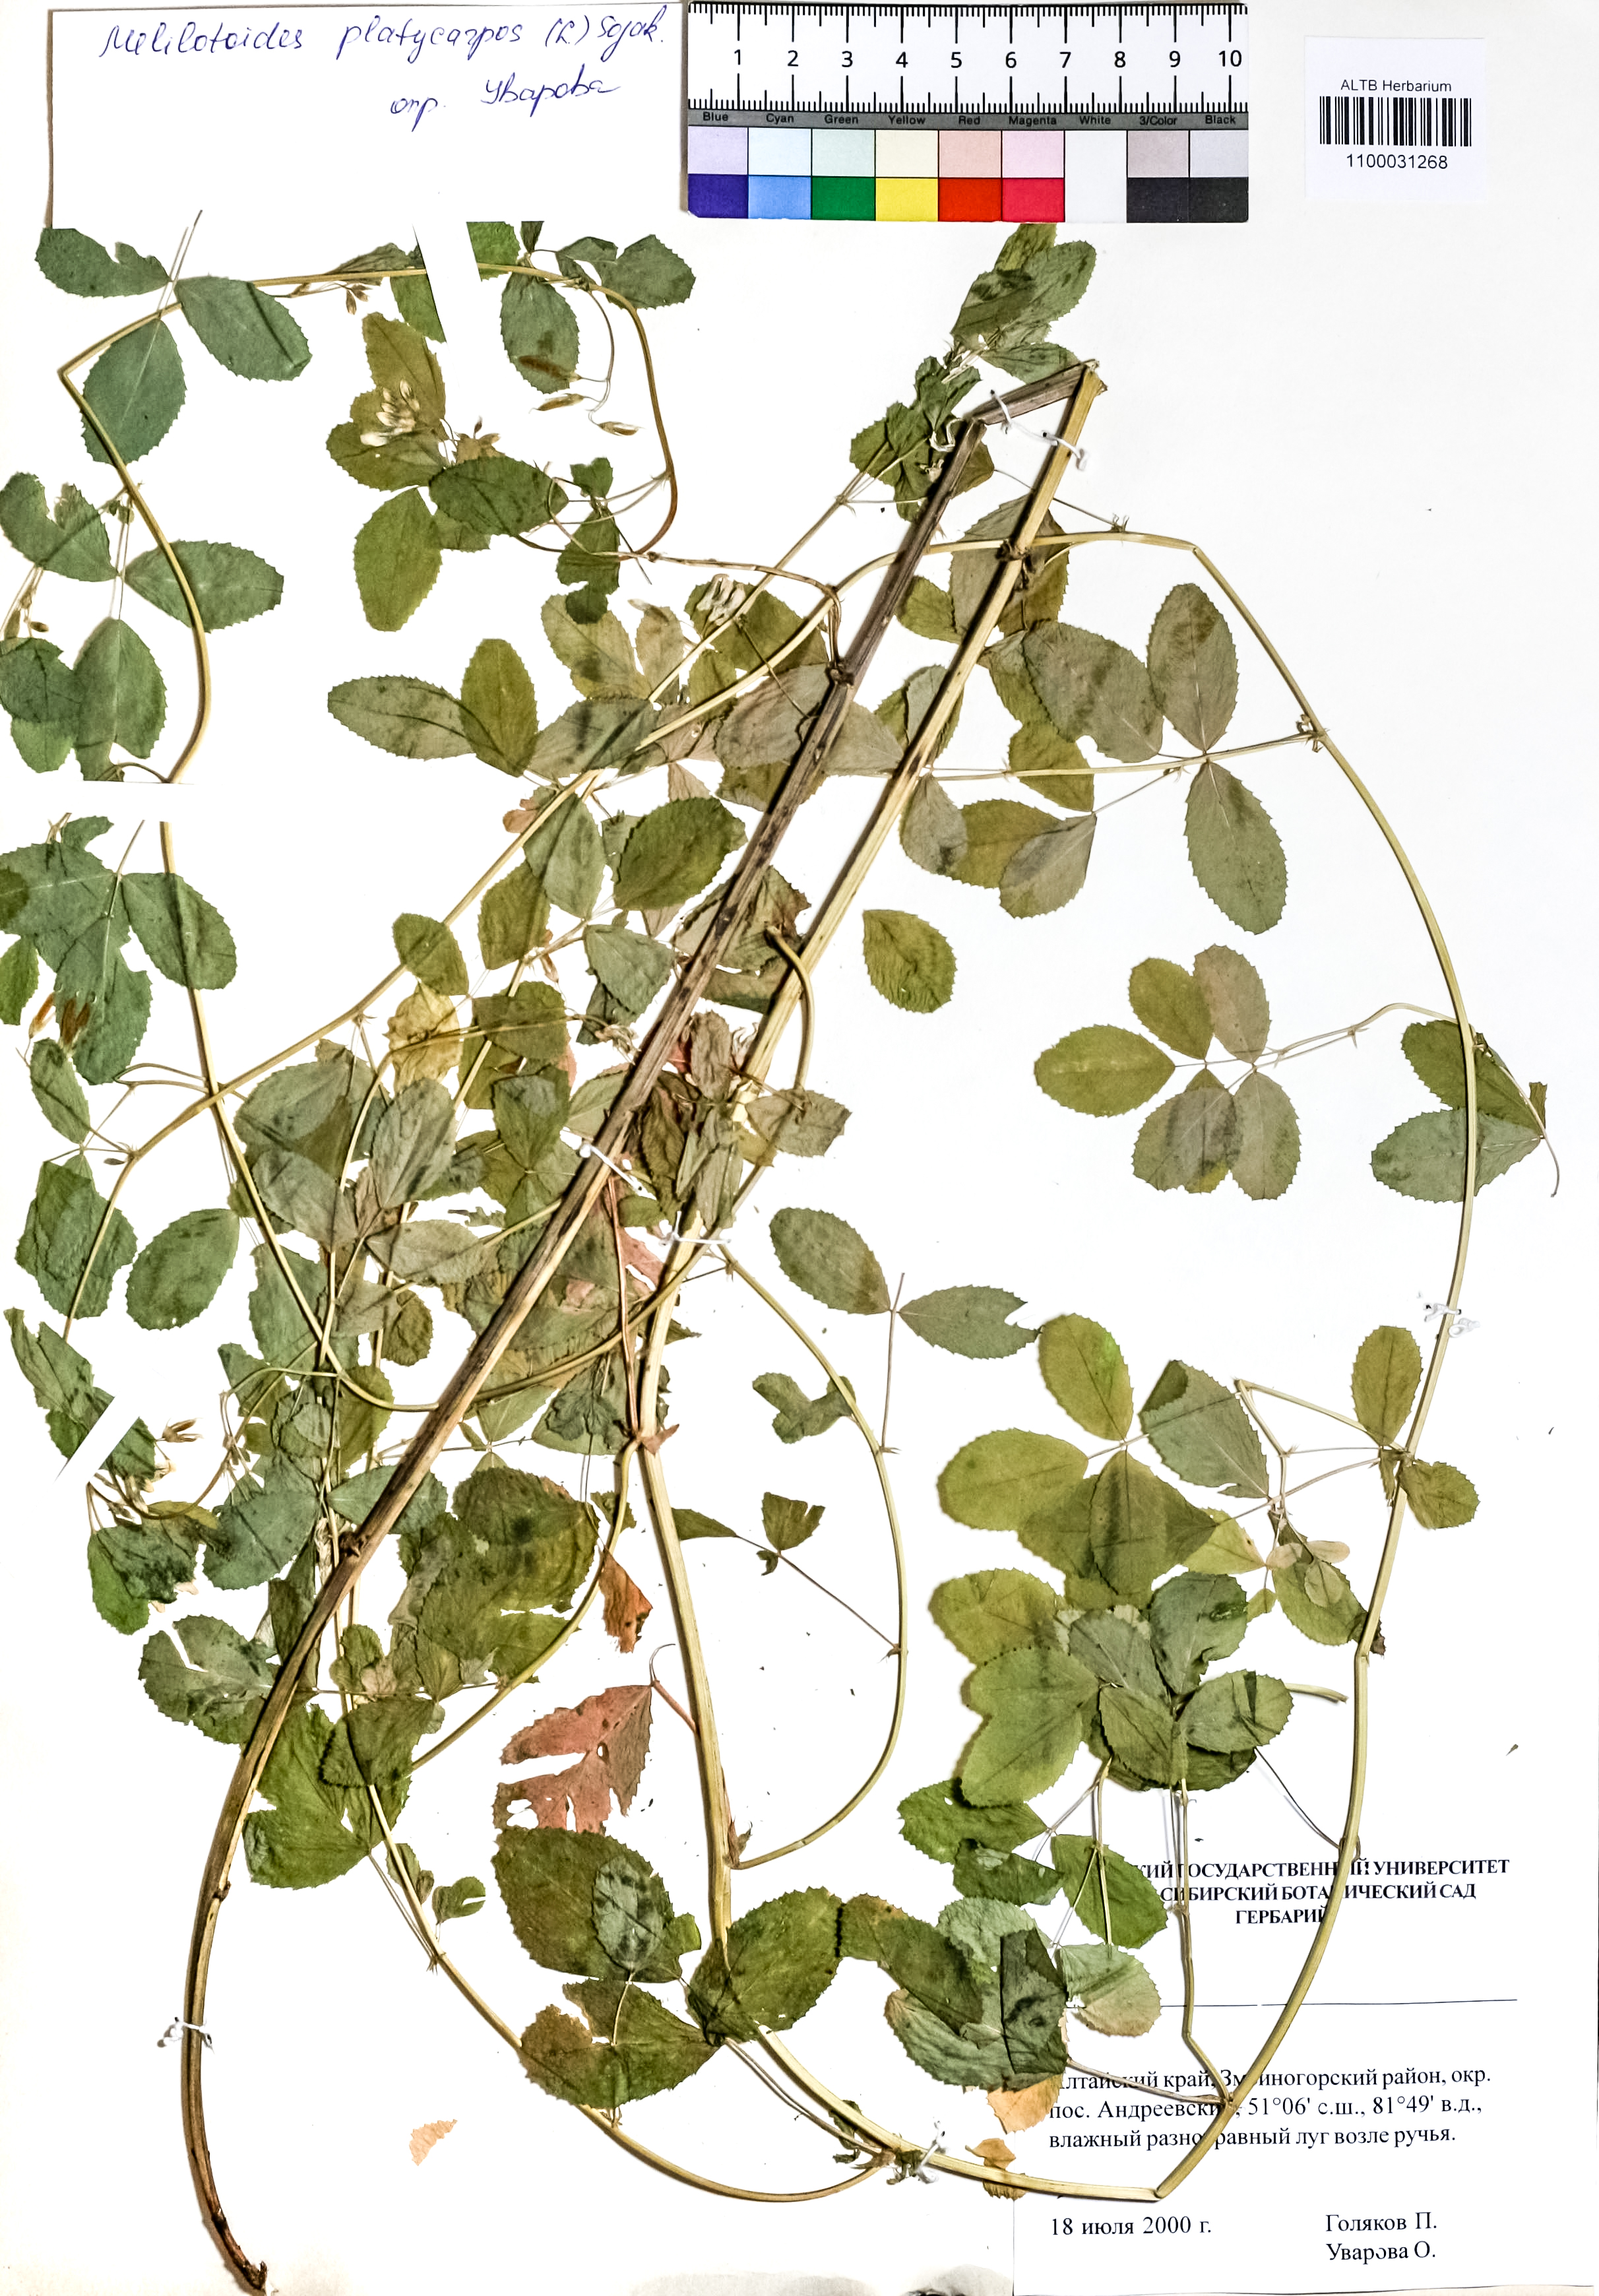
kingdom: Plantae
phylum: Tracheophyta
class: Magnoliopsida
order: Fabales
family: Fabaceae
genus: Medicago
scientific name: Medicago platycarpos
